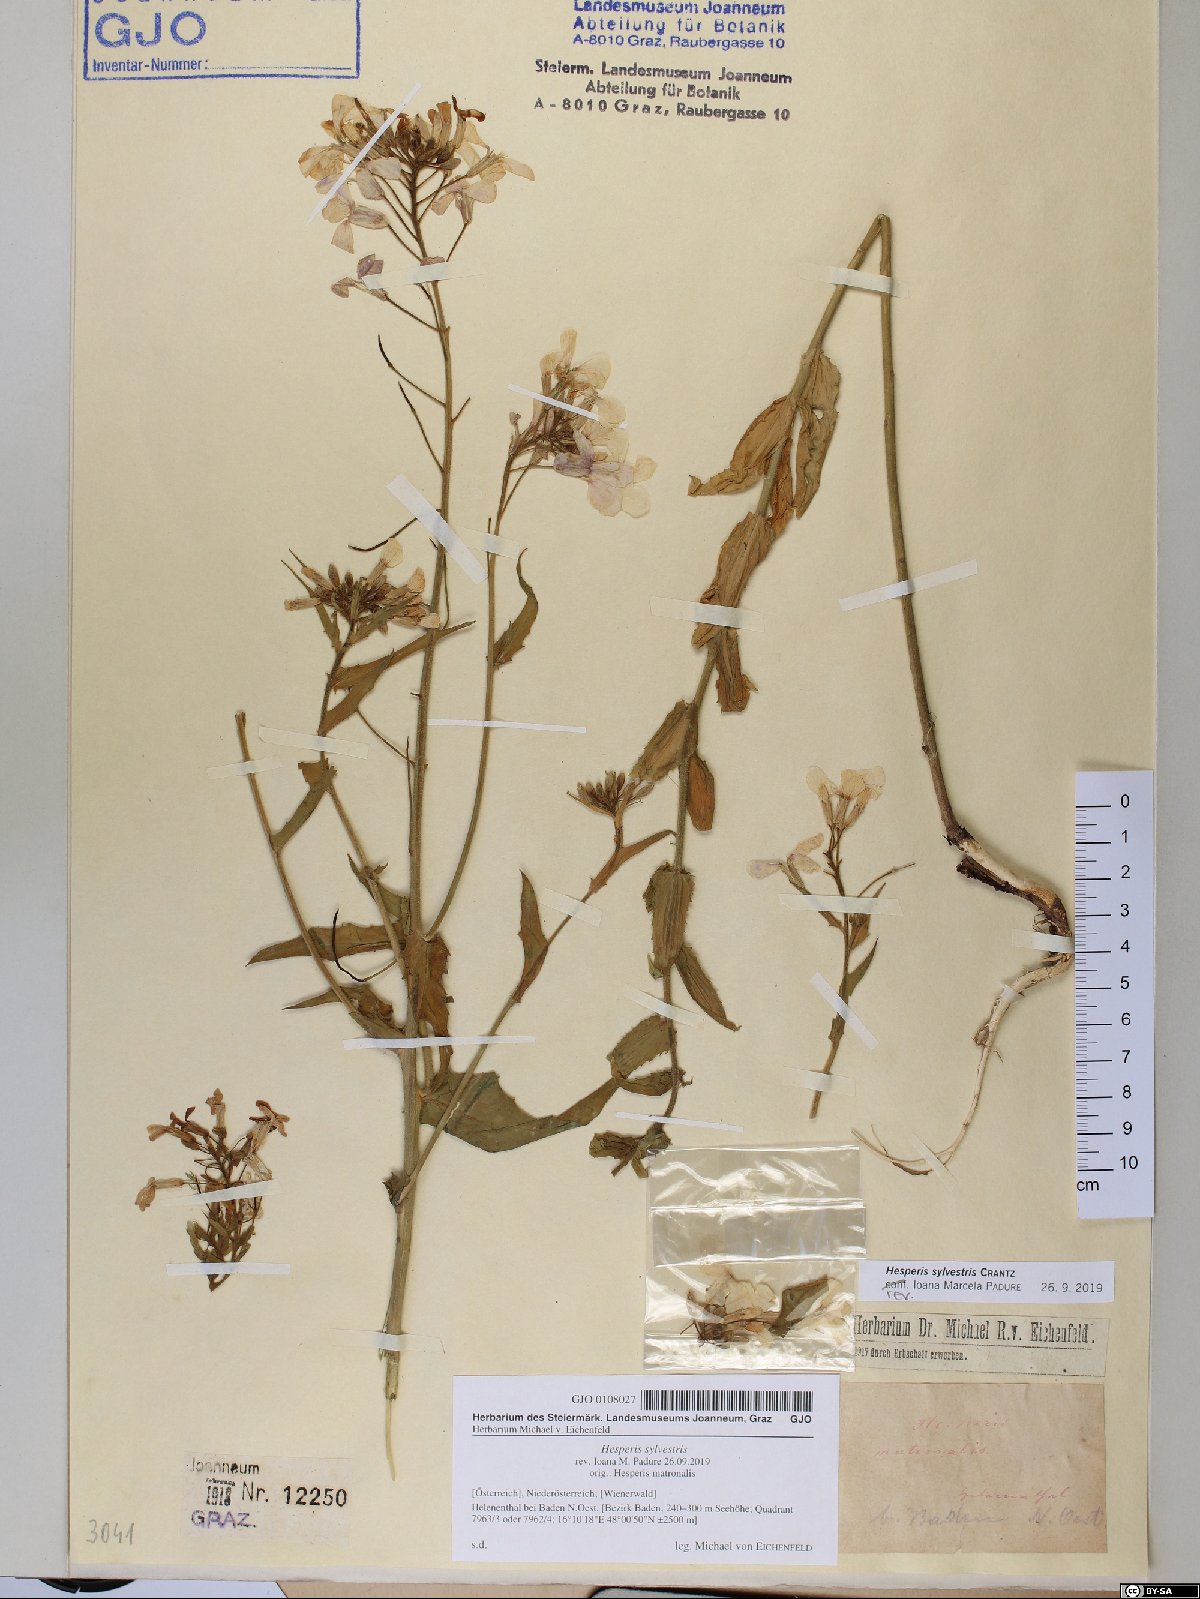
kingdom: Plantae
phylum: Tracheophyta
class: Magnoliopsida
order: Brassicales
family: Brassicaceae
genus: Hesperis
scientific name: Hesperis sylvestris
